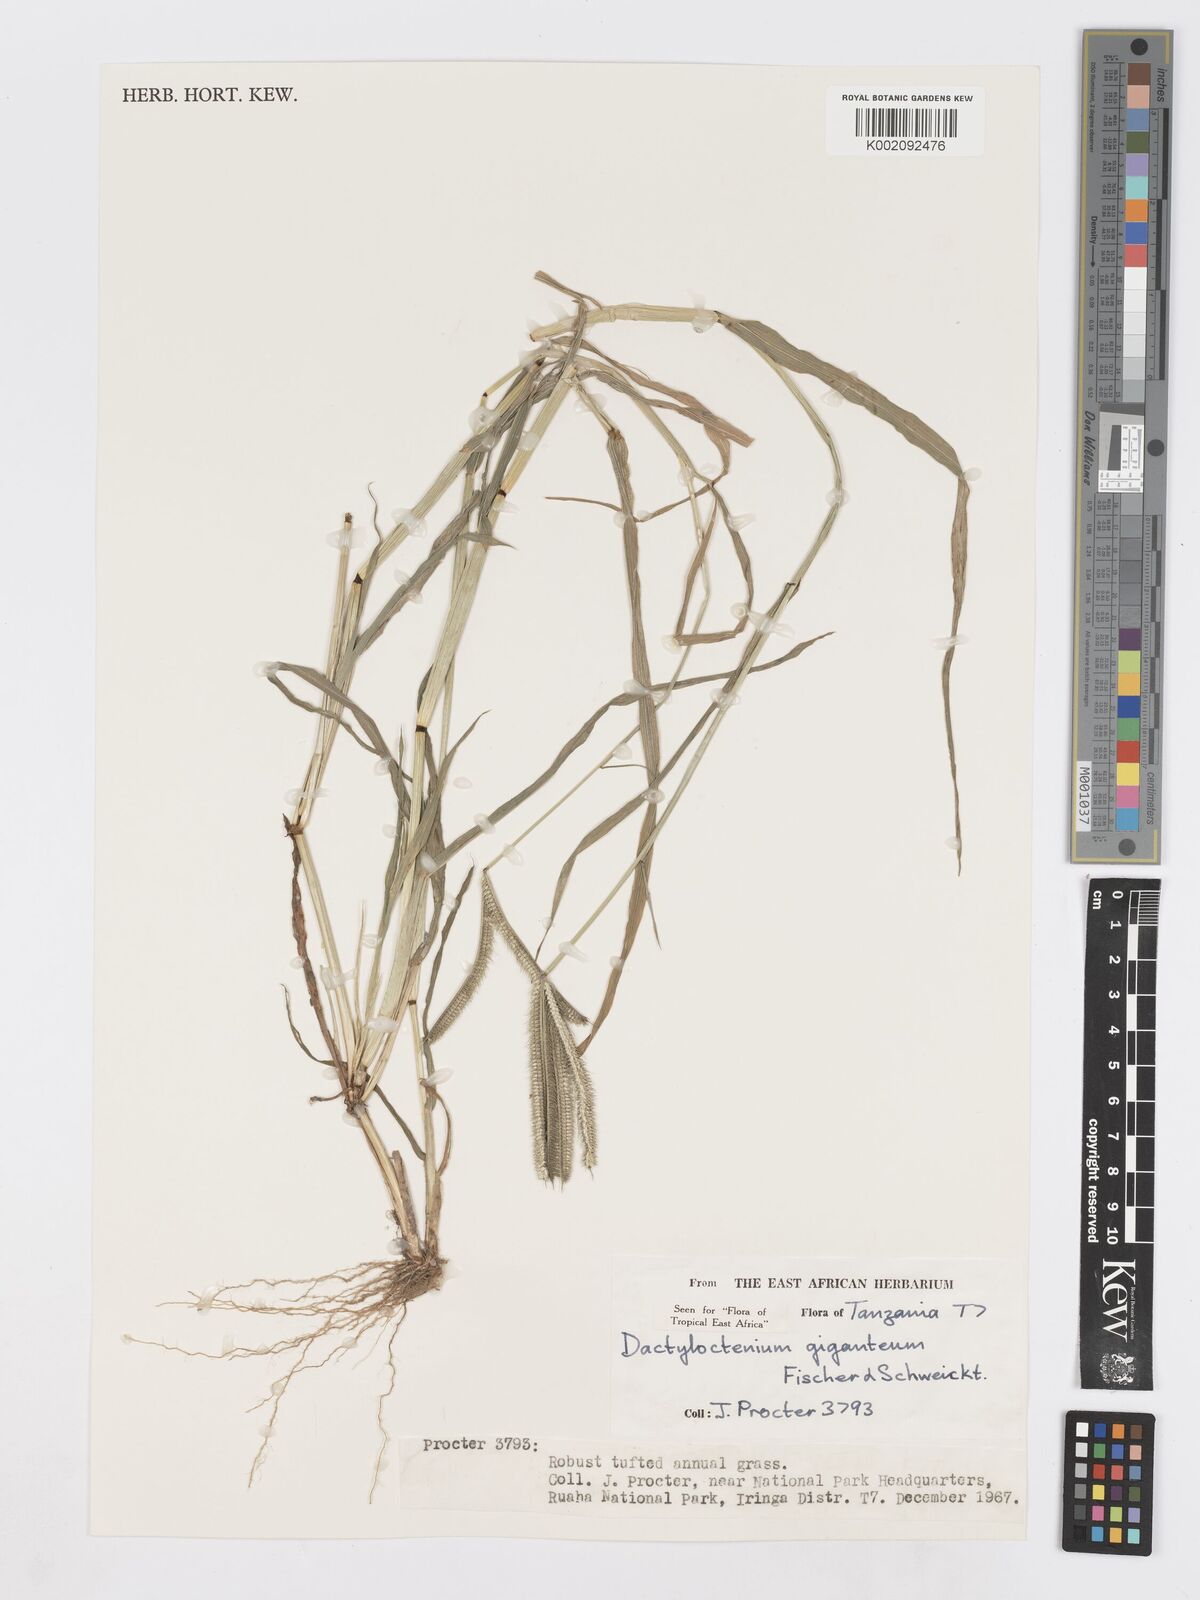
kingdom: Plantae
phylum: Tracheophyta
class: Liliopsida
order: Poales
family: Poaceae
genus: Dactyloctenium
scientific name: Dactyloctenium giganteum
